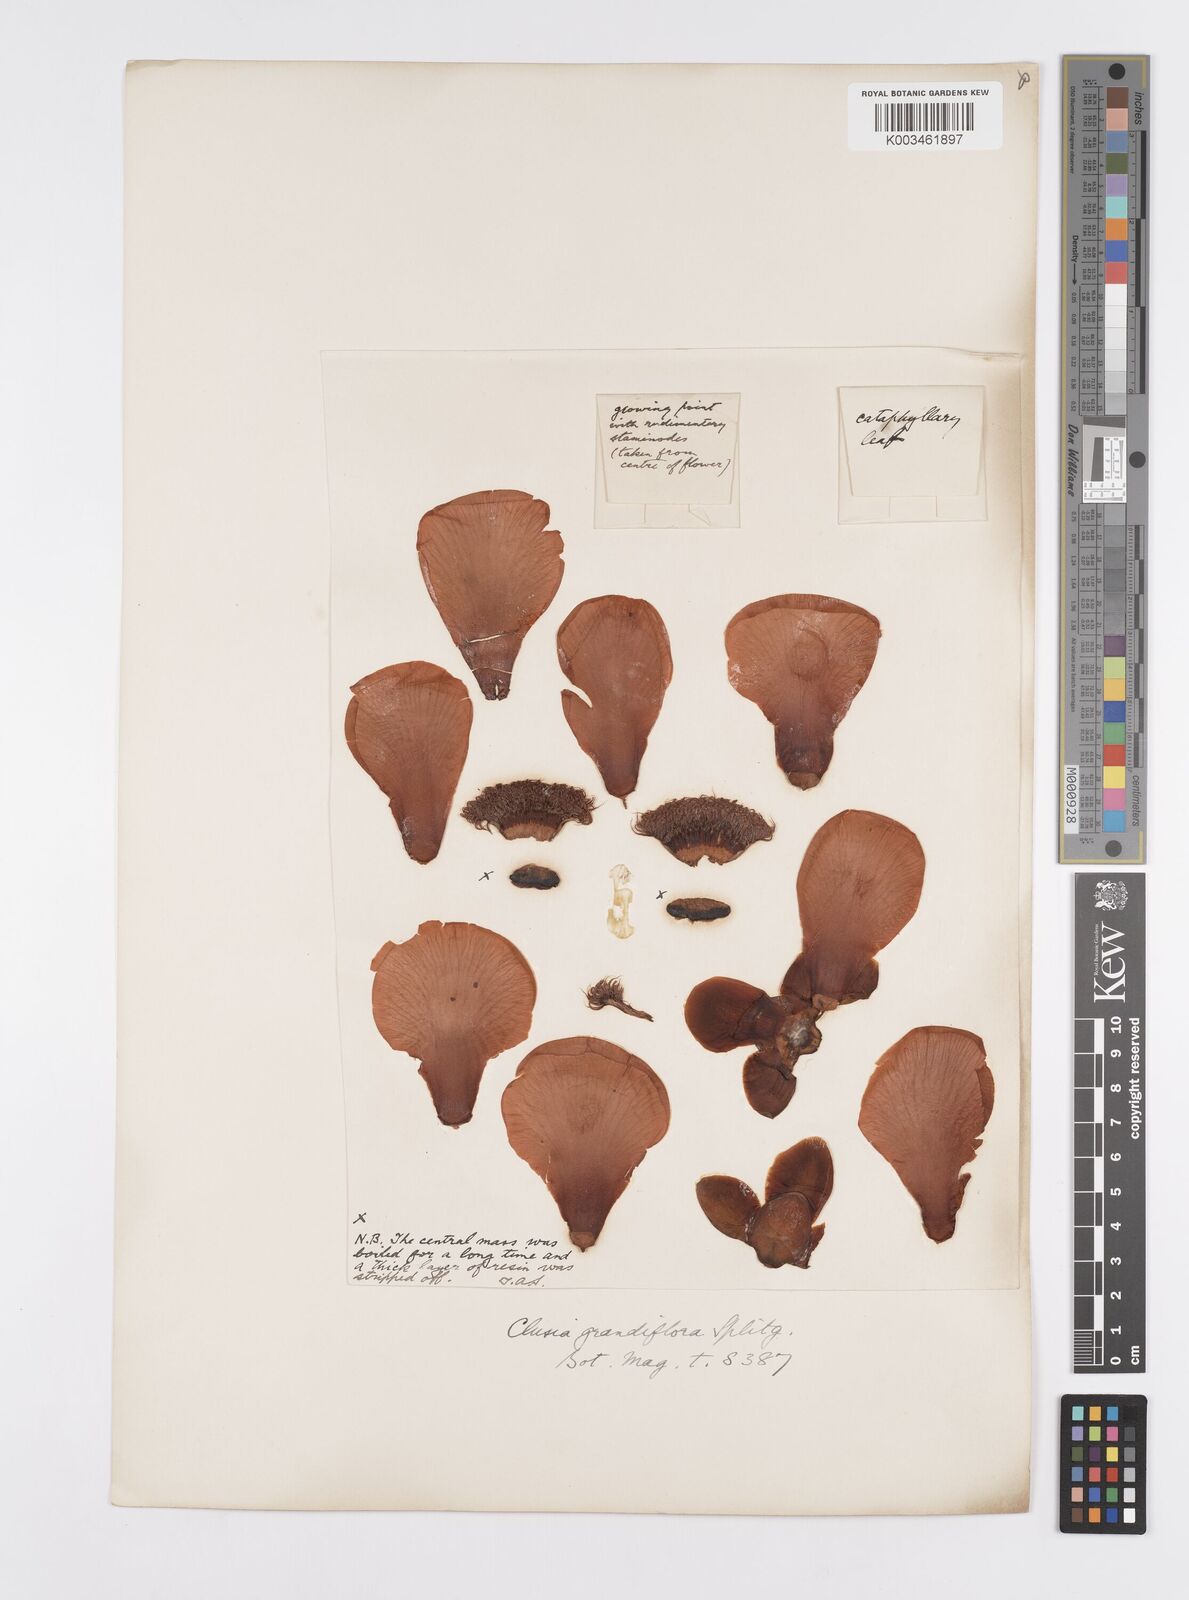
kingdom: Plantae
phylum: Tracheophyta
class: Magnoliopsida
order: Malpighiales
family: Clusiaceae
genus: Clusia
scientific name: Clusia grandiflora
